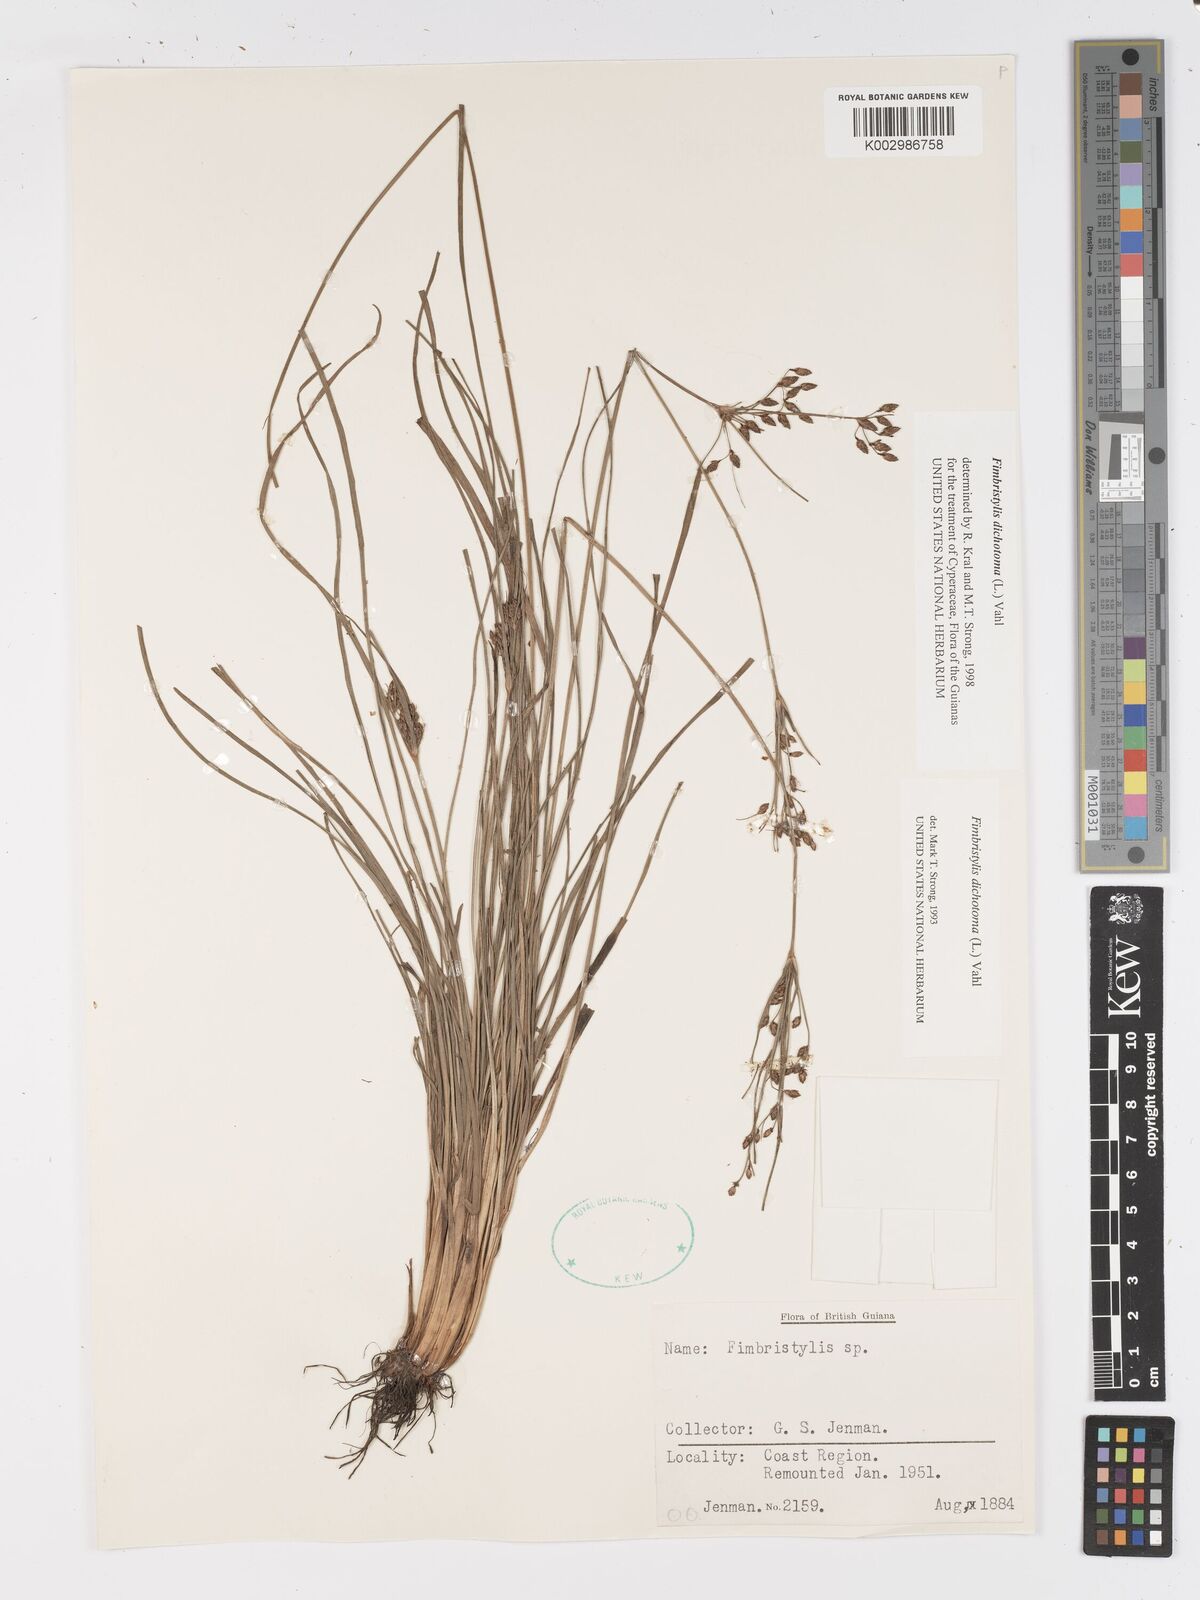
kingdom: Plantae
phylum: Tracheophyta
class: Liliopsida
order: Poales
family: Cyperaceae
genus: Fimbristylis
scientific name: Fimbristylis dichotoma
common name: Forked fimbry
